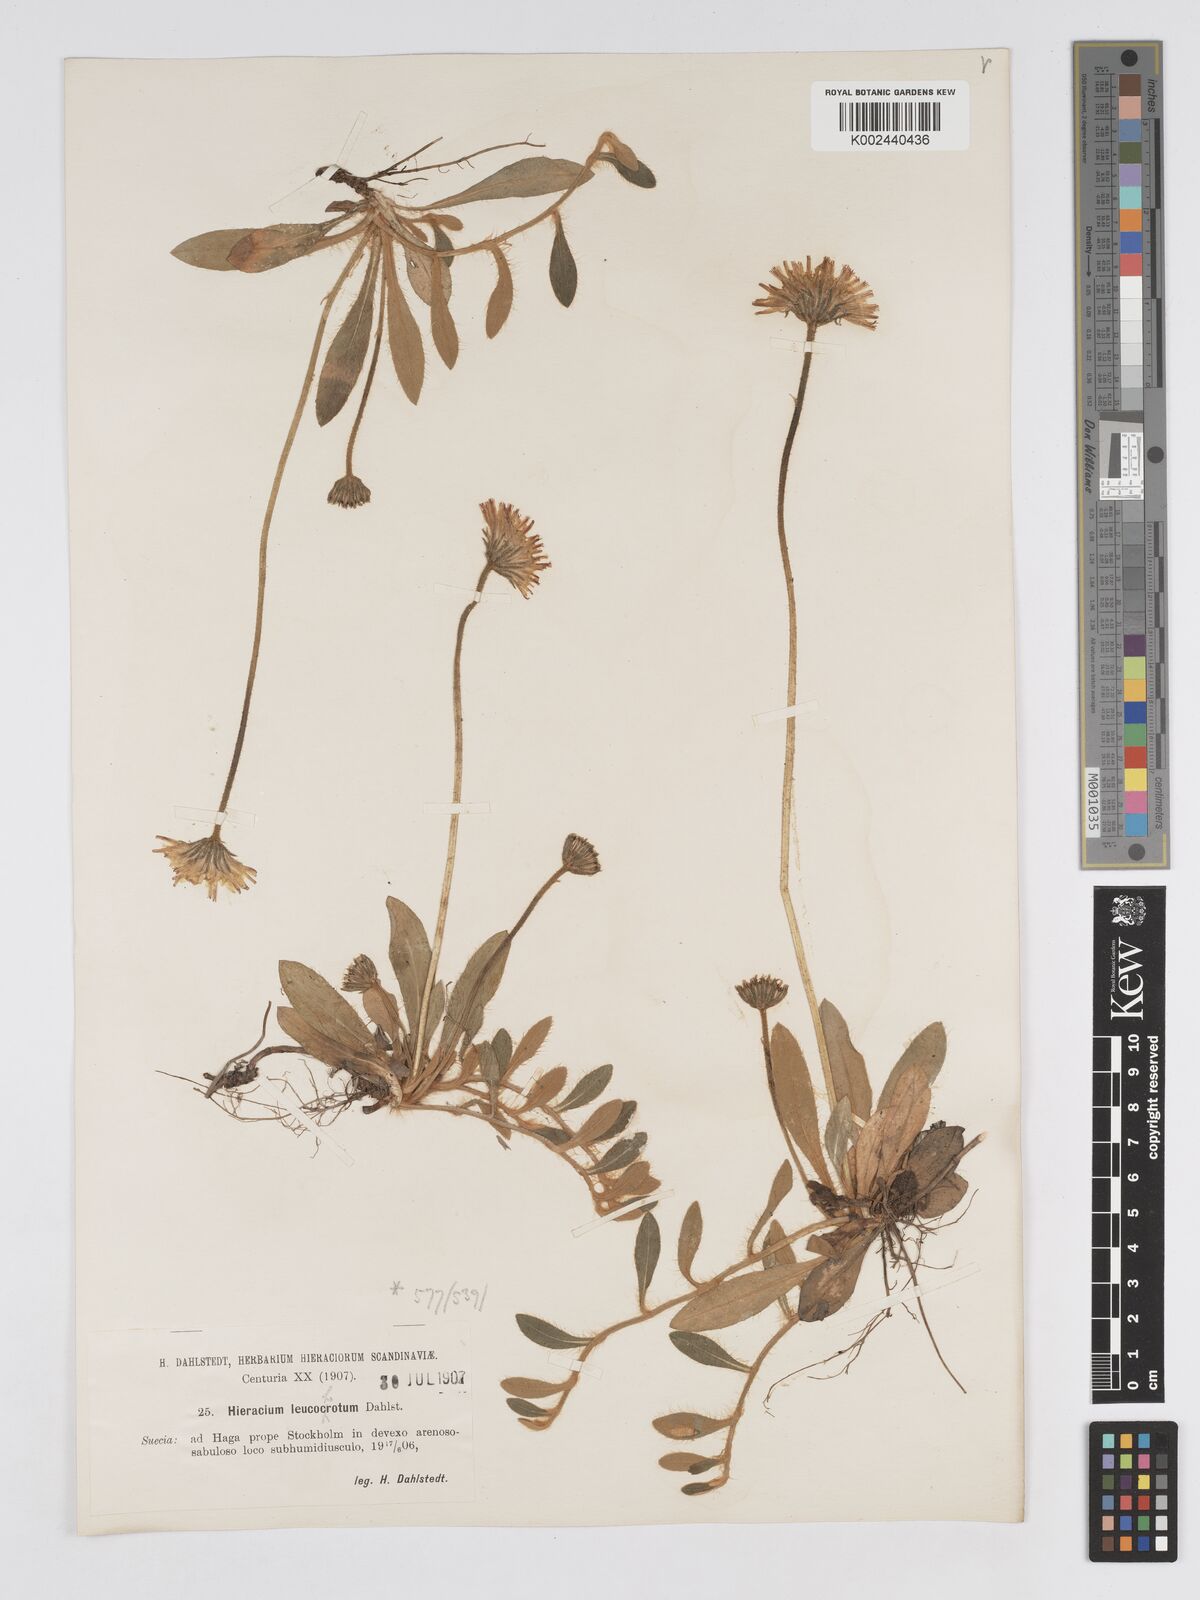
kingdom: Plantae
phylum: Tracheophyta
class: Magnoliopsida
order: Asterales
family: Asteraceae
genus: Pilosella
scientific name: Pilosella officinarum
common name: Mouse-ear hawkweed
